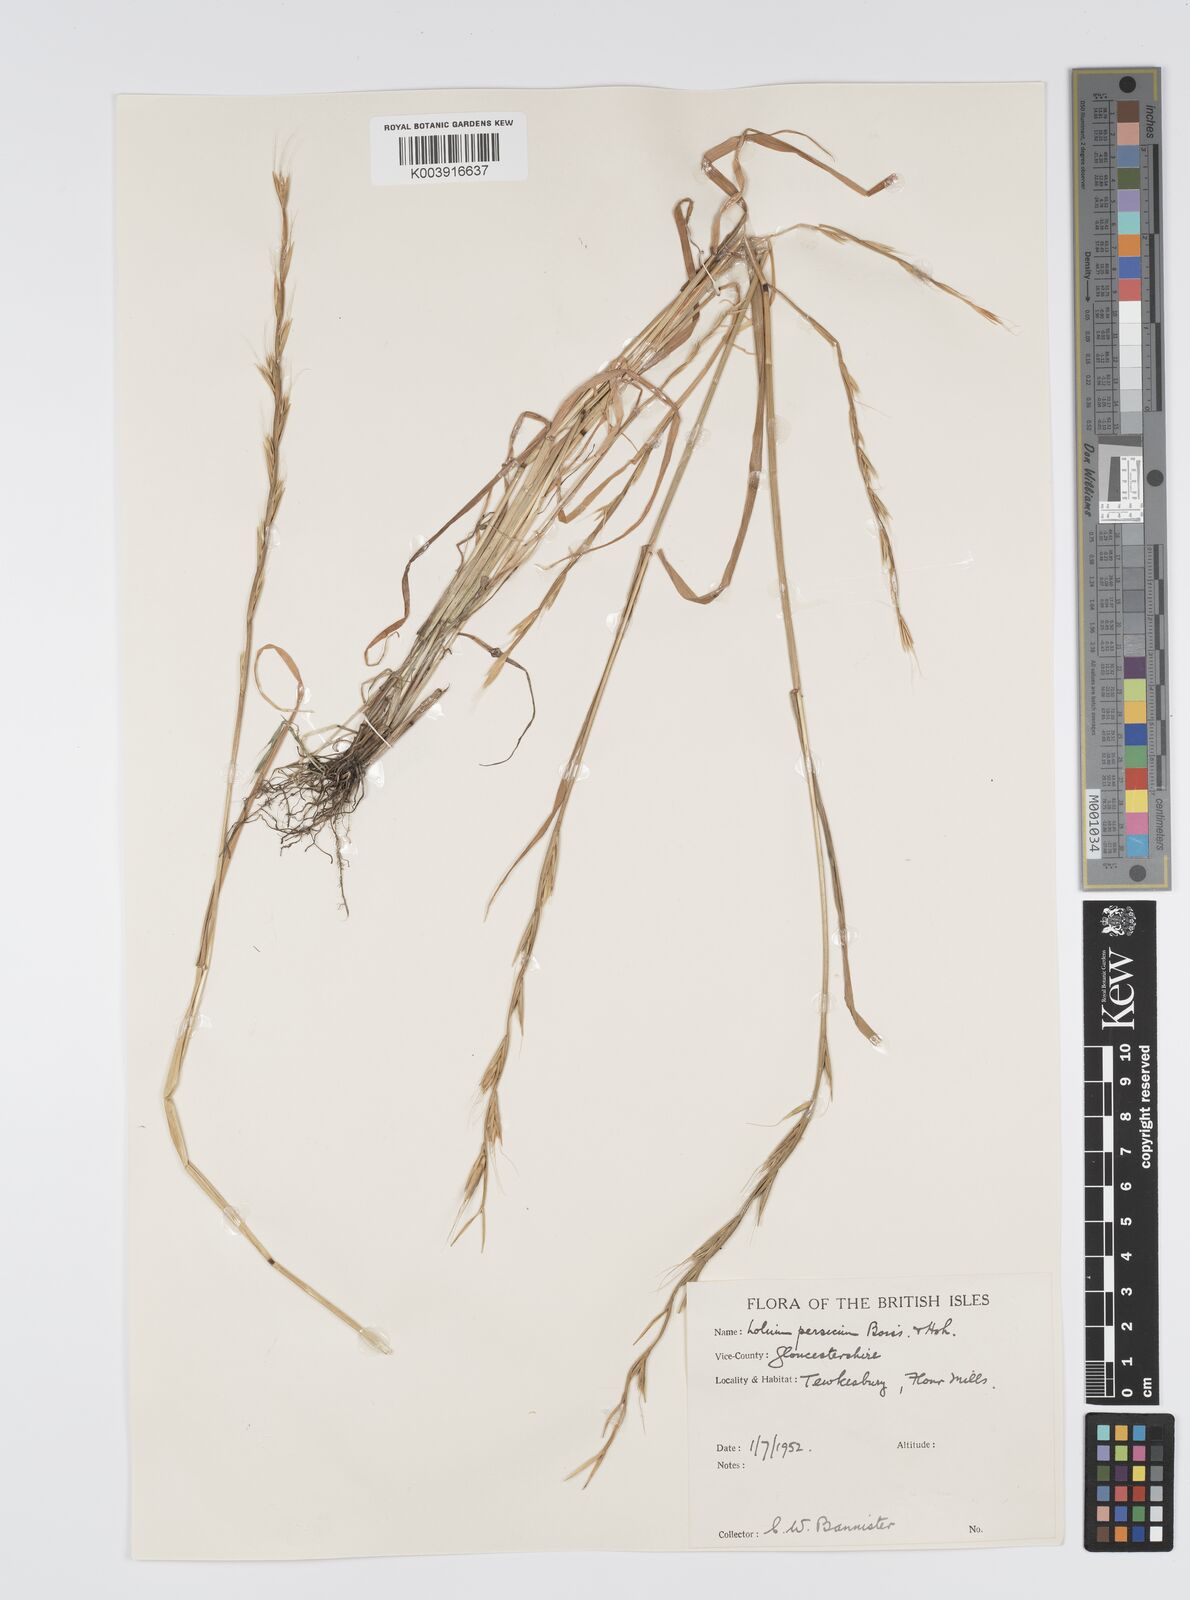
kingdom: Plantae
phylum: Tracheophyta
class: Liliopsida
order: Poales
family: Poaceae
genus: Lolium
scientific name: Lolium persicum
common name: Persian ryegrass
